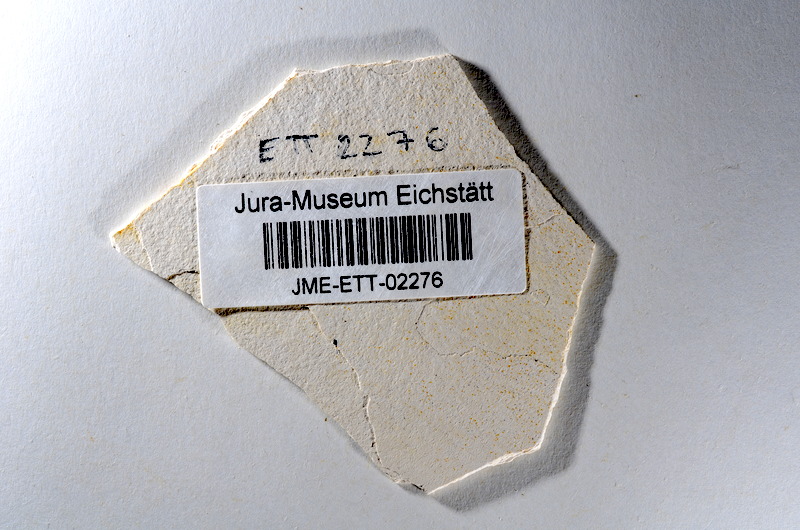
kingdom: Animalia
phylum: Chordata
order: Salmoniformes
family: Orthogonikleithridae
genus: Orthogonikleithrus
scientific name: Orthogonikleithrus hoelli
